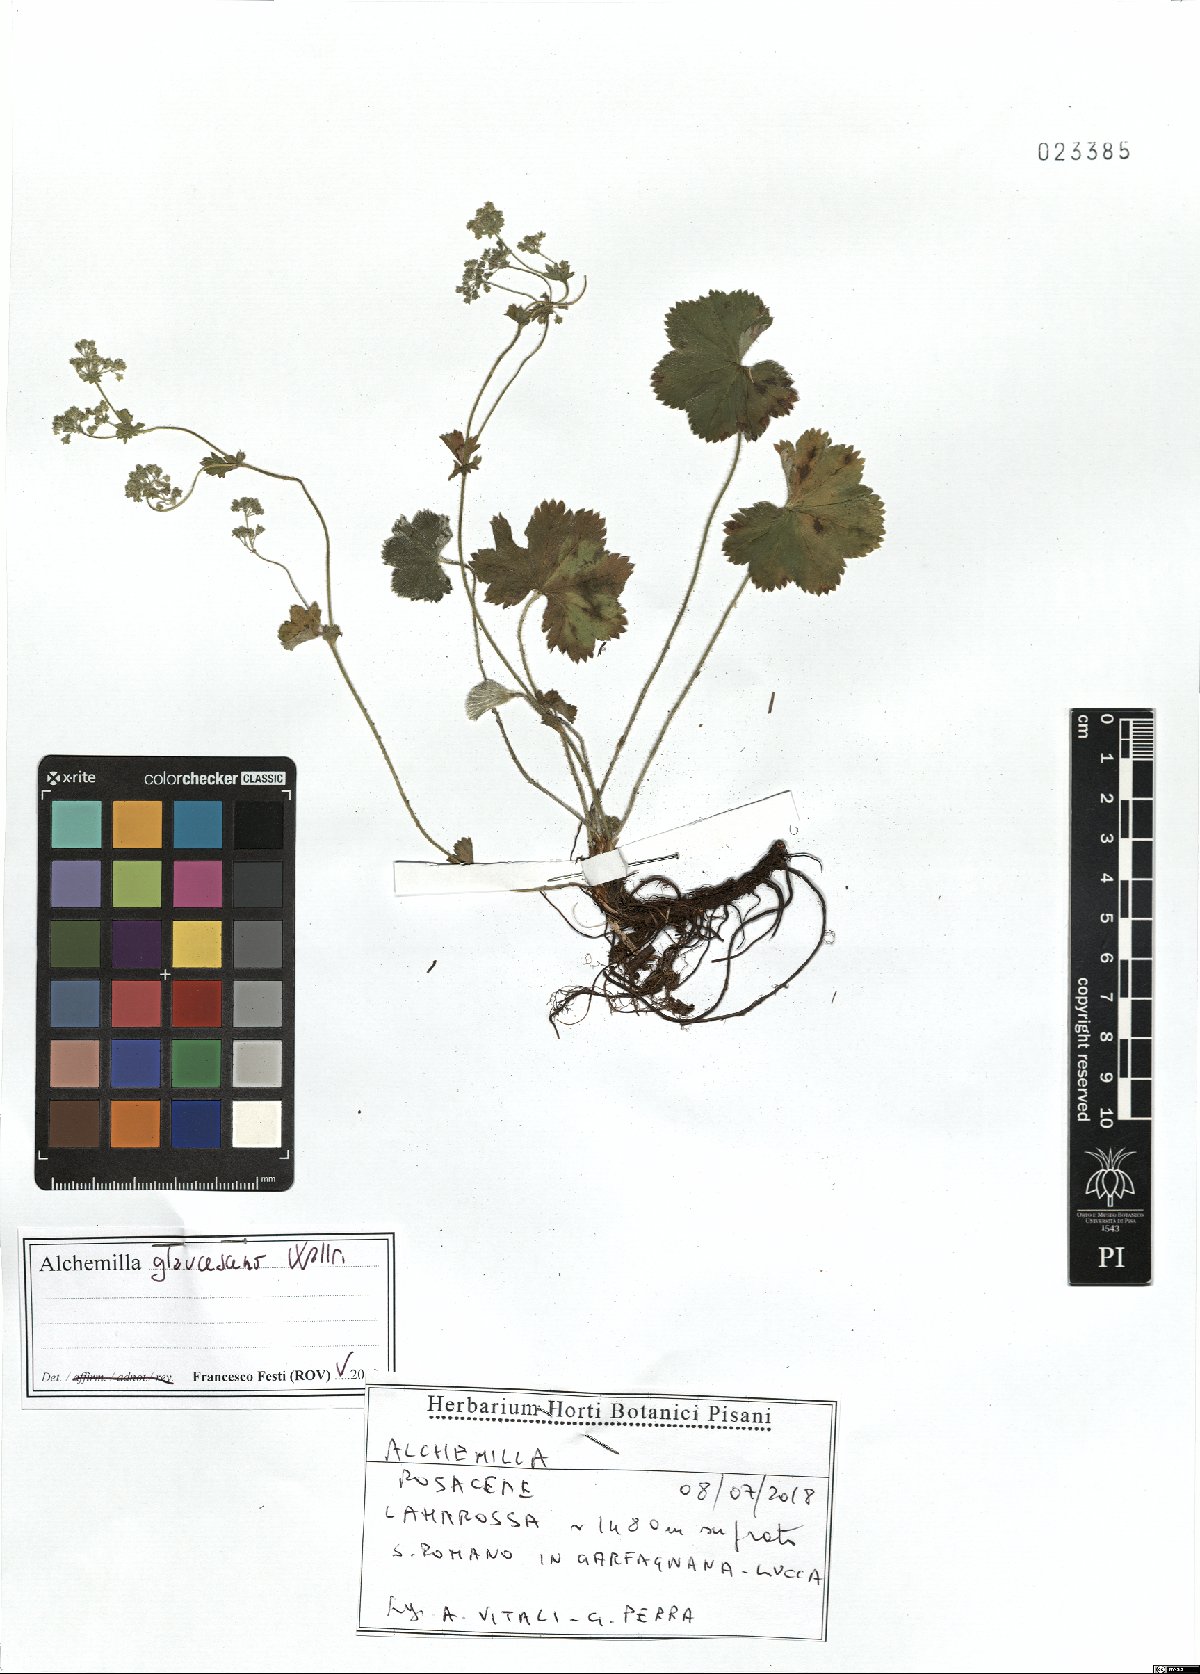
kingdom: Plantae
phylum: Tracheophyta
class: Magnoliopsida
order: Rosales
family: Rosaceae
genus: Alchemilla
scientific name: Alchemilla glaucescens
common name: Silky lady's mantle
